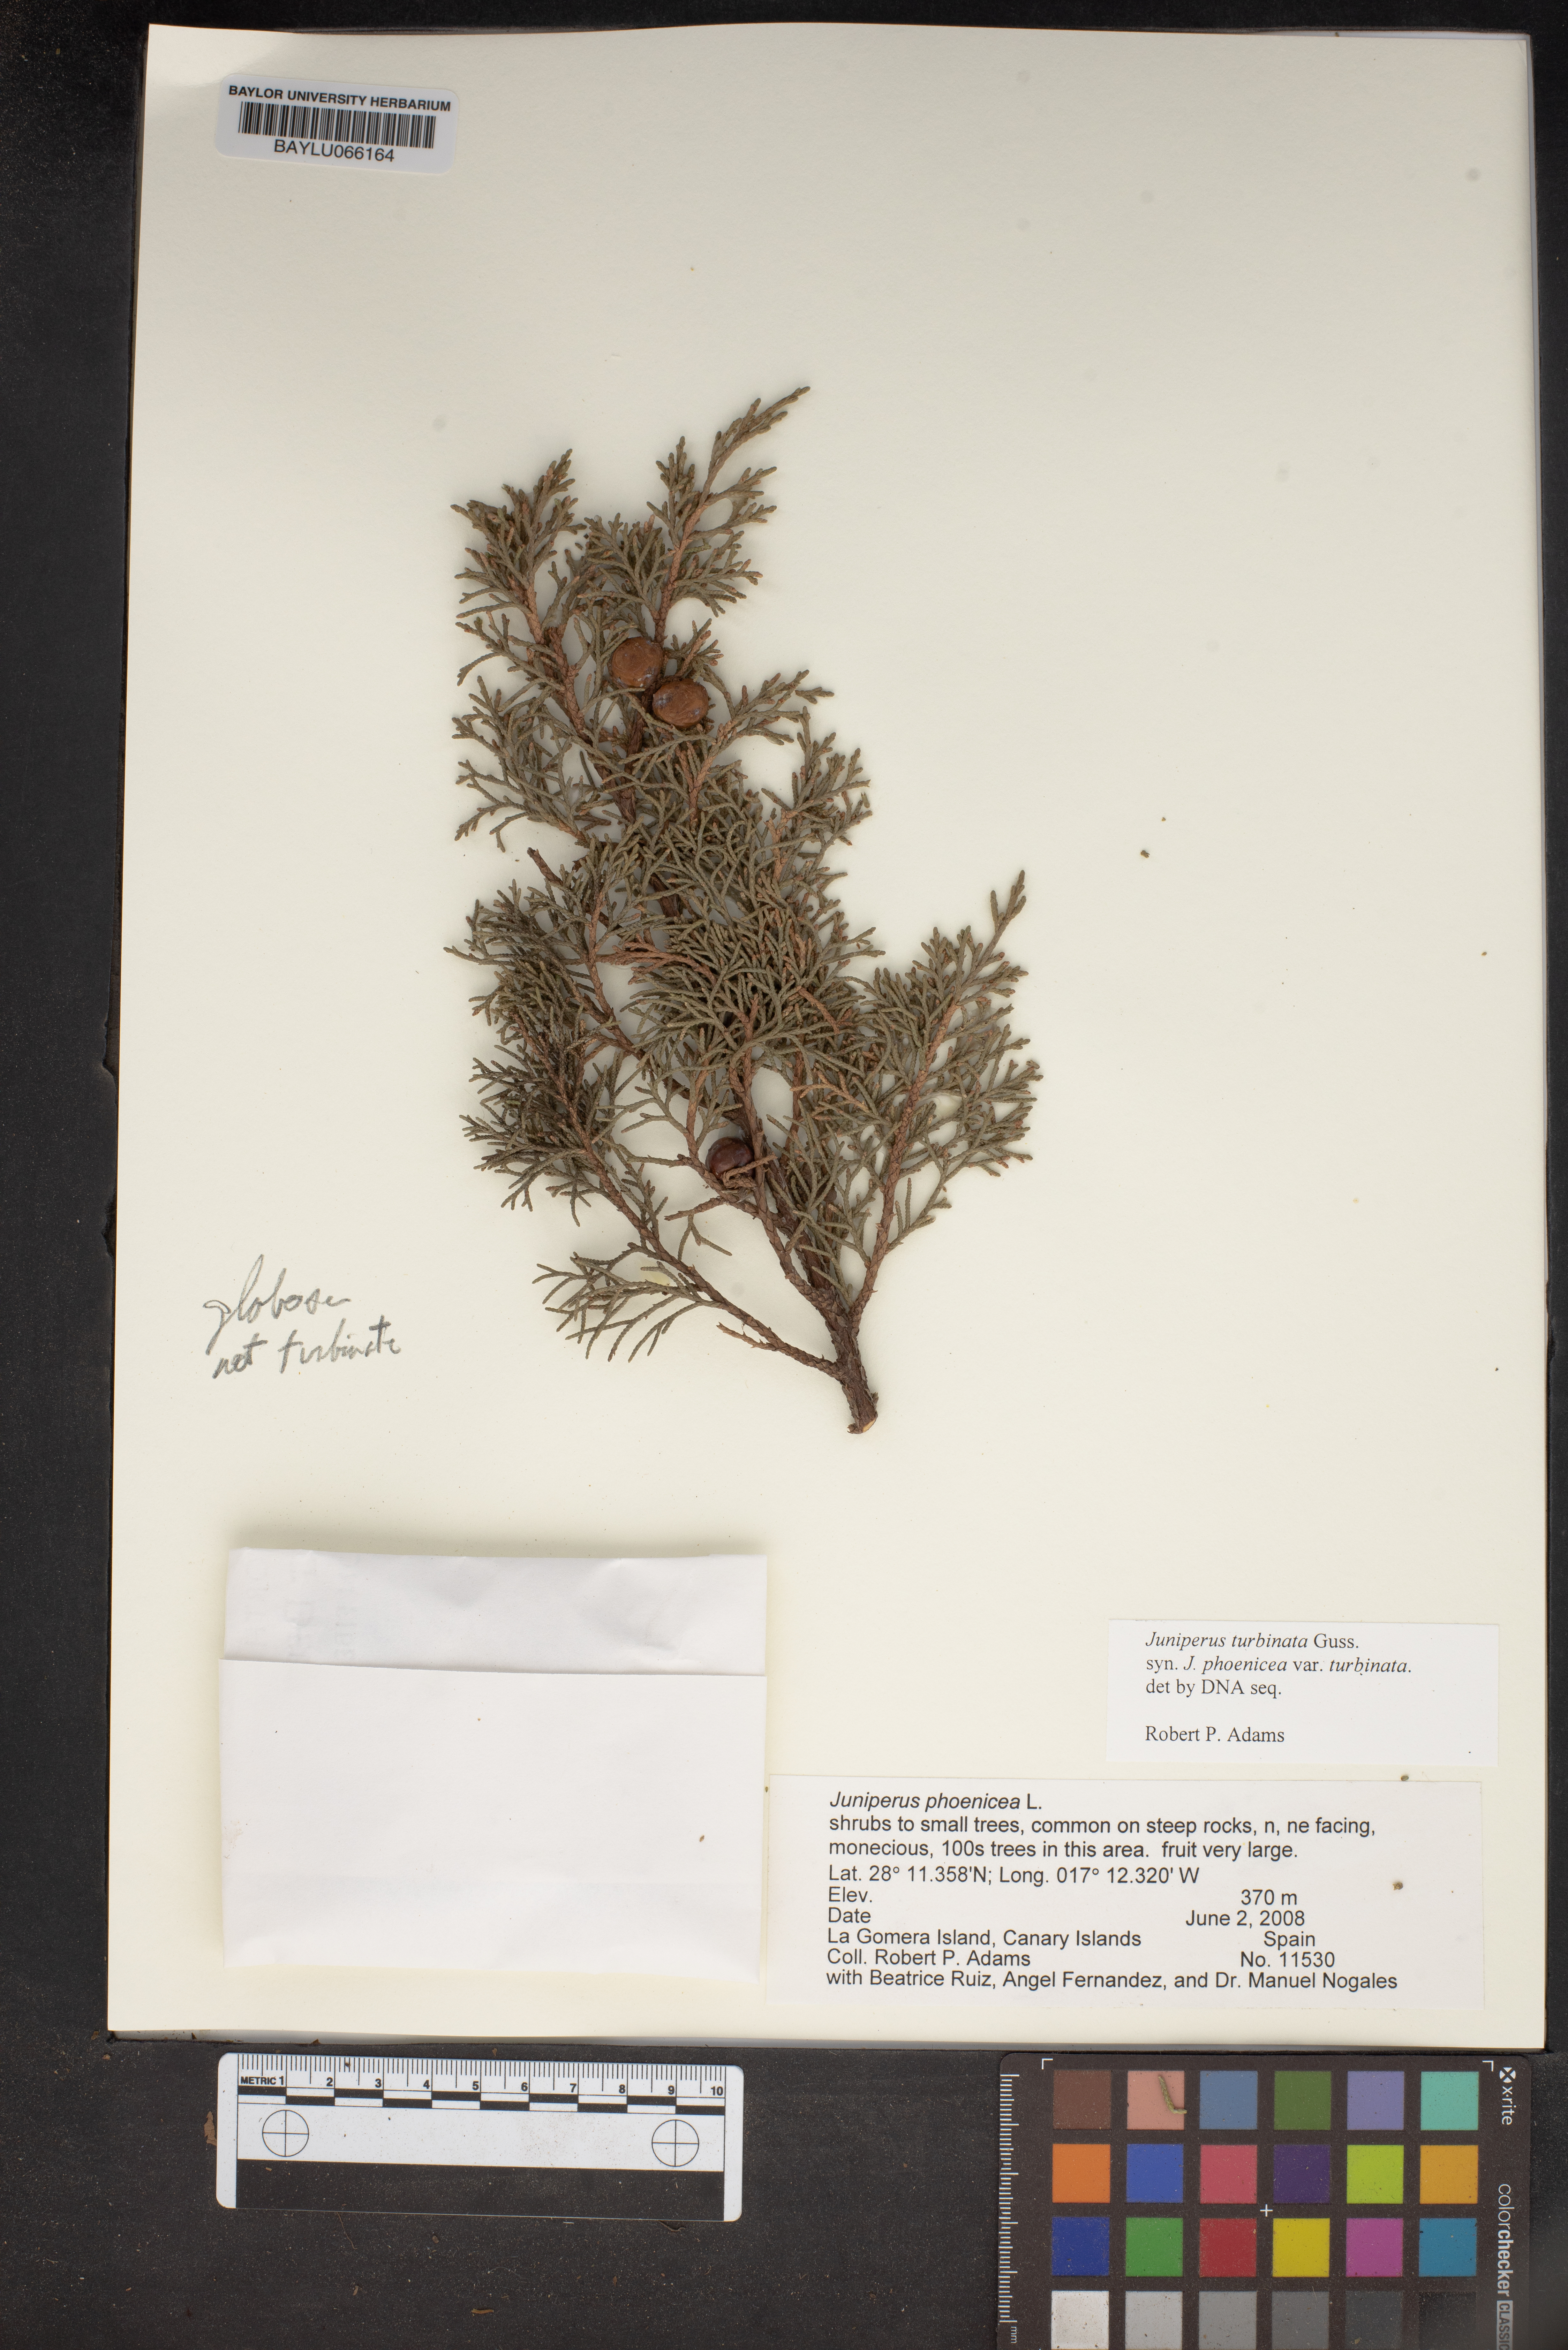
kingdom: Plantae
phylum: Tracheophyta
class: Pinopsida
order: Pinales
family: Cupressaceae
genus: Juniperus
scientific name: Juniperus phoenicea
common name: Phoenician juniper
